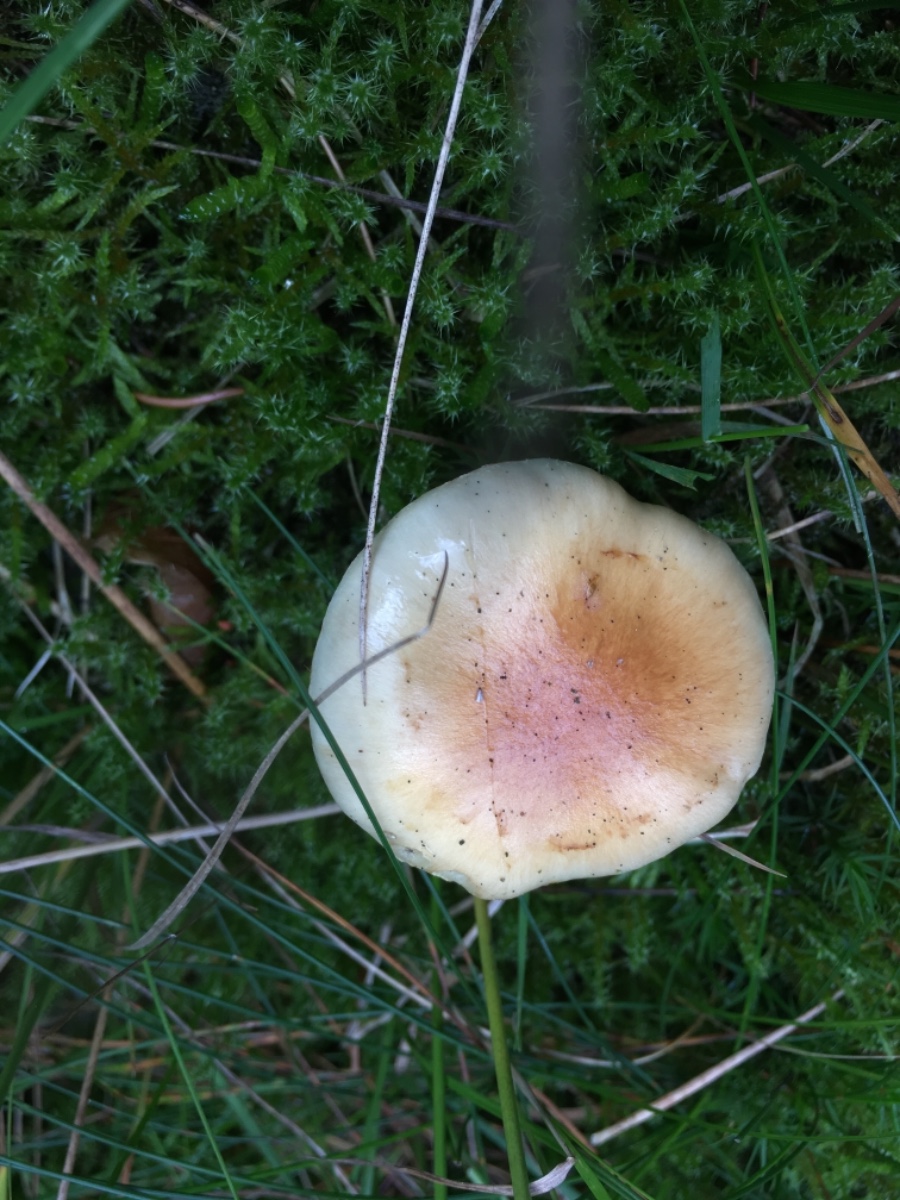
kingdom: Fungi
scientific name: Fungi
